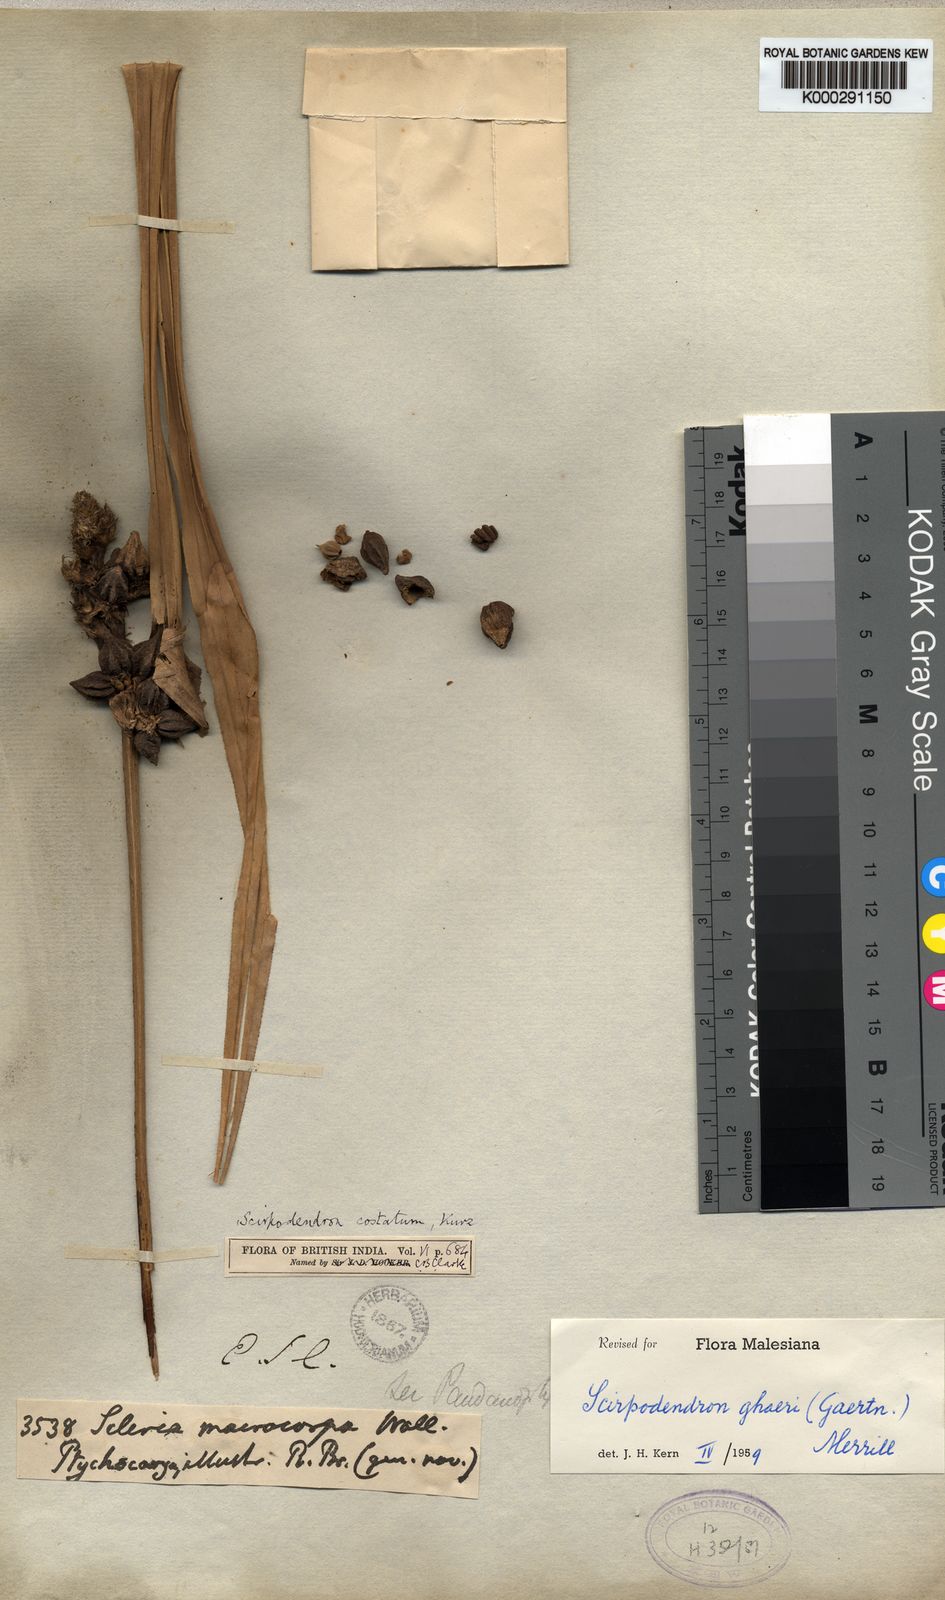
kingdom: Plantae
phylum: Tracheophyta
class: Liliopsida
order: Poales
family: Cyperaceae
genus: Scirpodendron
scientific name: Scirpodendron ghaeri
